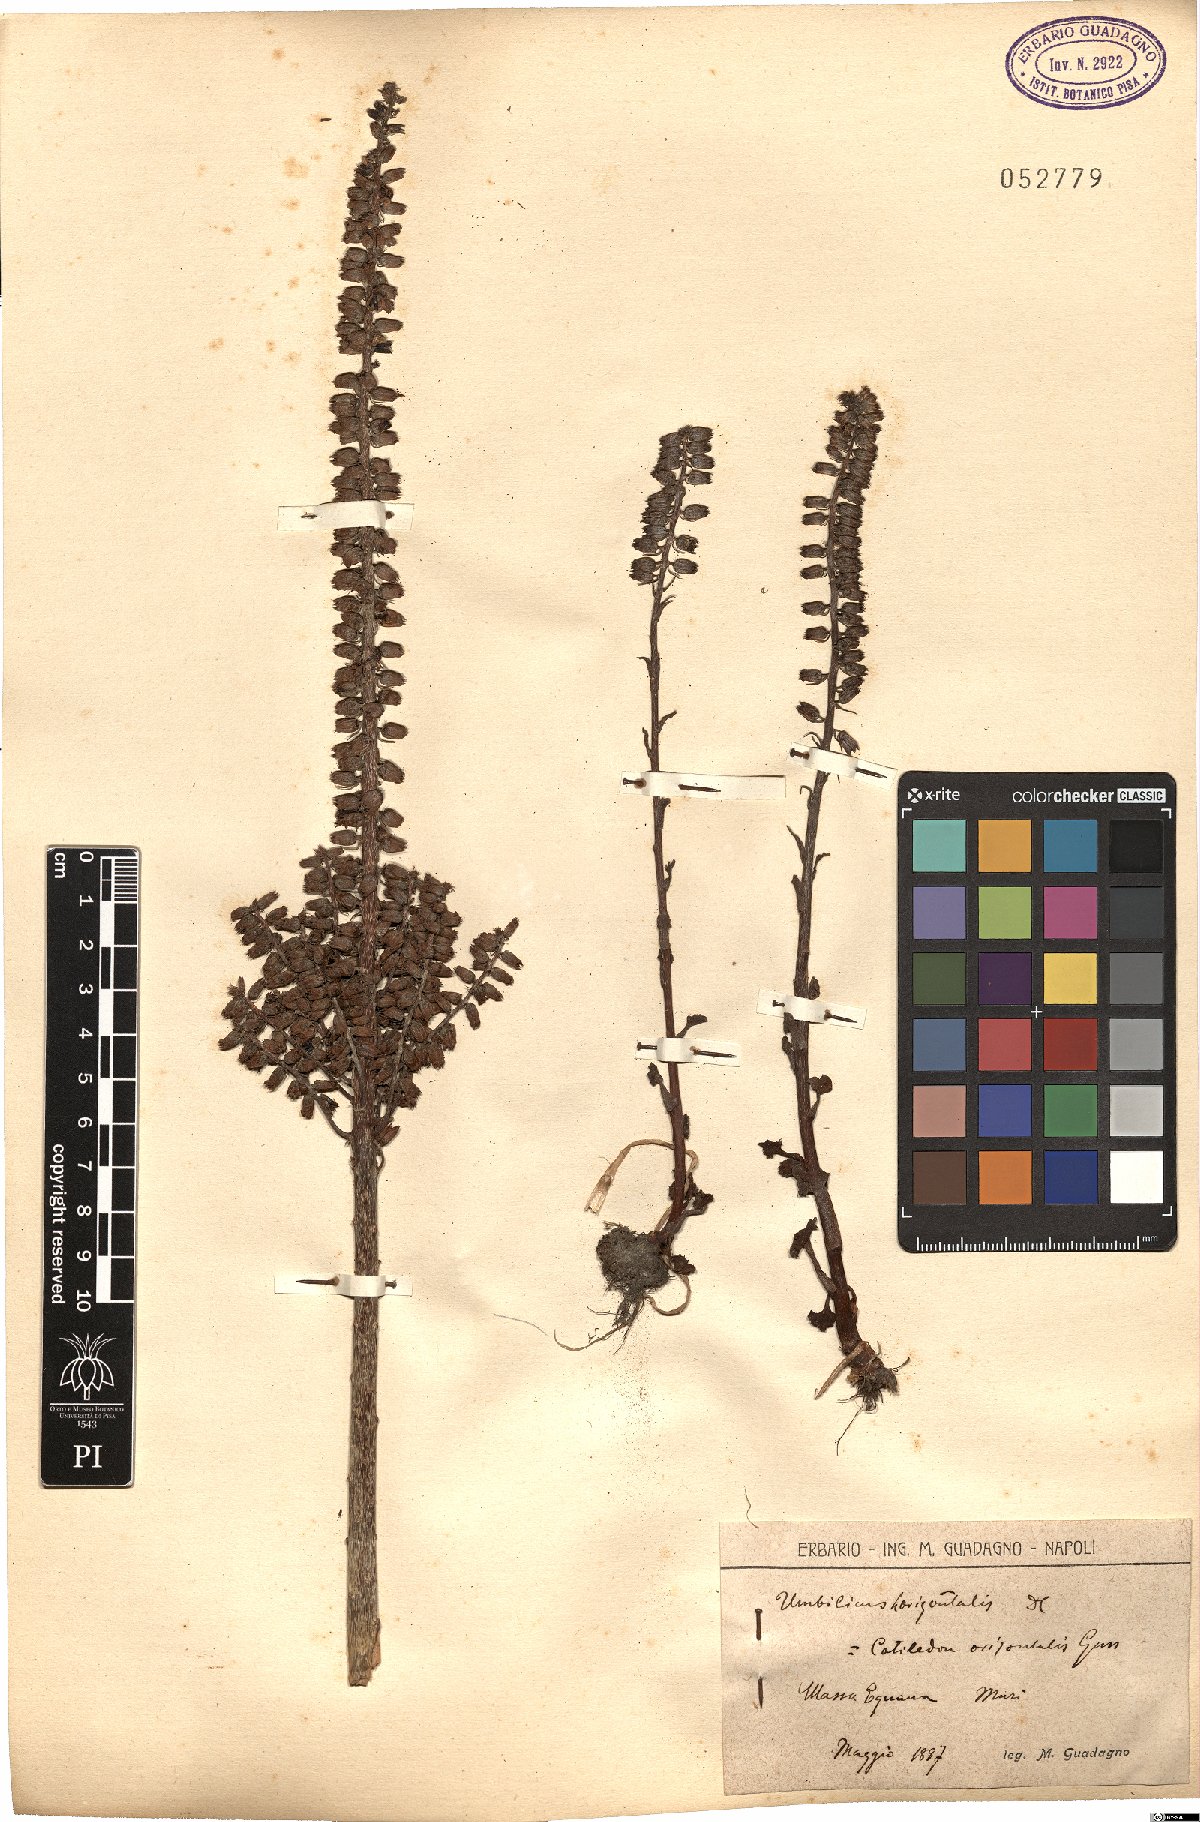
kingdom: Plantae
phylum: Tracheophyta
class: Magnoliopsida
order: Saxifragales
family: Crassulaceae
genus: Umbilicus
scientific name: Umbilicus horizontalis
